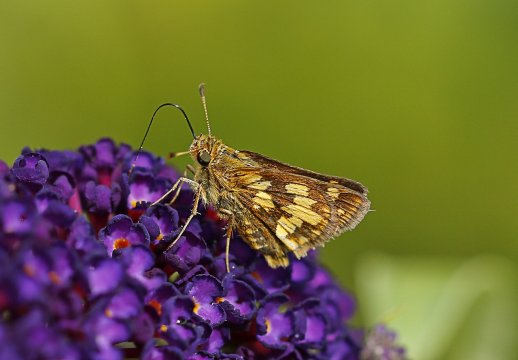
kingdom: Animalia
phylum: Arthropoda
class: Insecta
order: Lepidoptera
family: Hesperiidae
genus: Polites
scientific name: Polites coras
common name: Peck's Skipper
